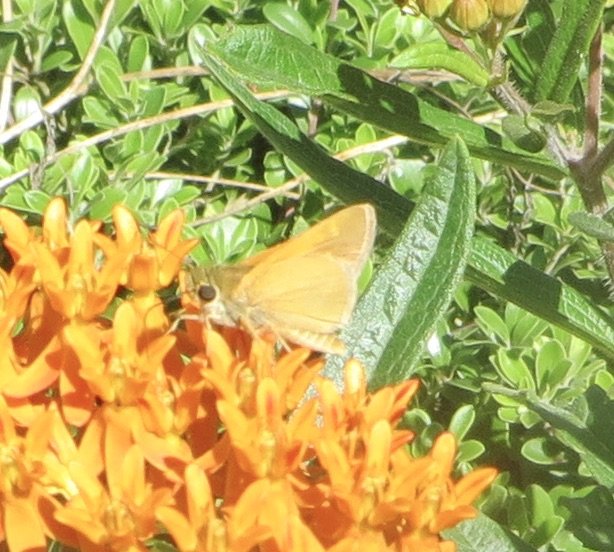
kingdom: Animalia
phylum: Arthropoda
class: Insecta
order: Lepidoptera
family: Hesperiidae
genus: Polites
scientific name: Polites themistocles
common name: Tawny-edged Skipper
